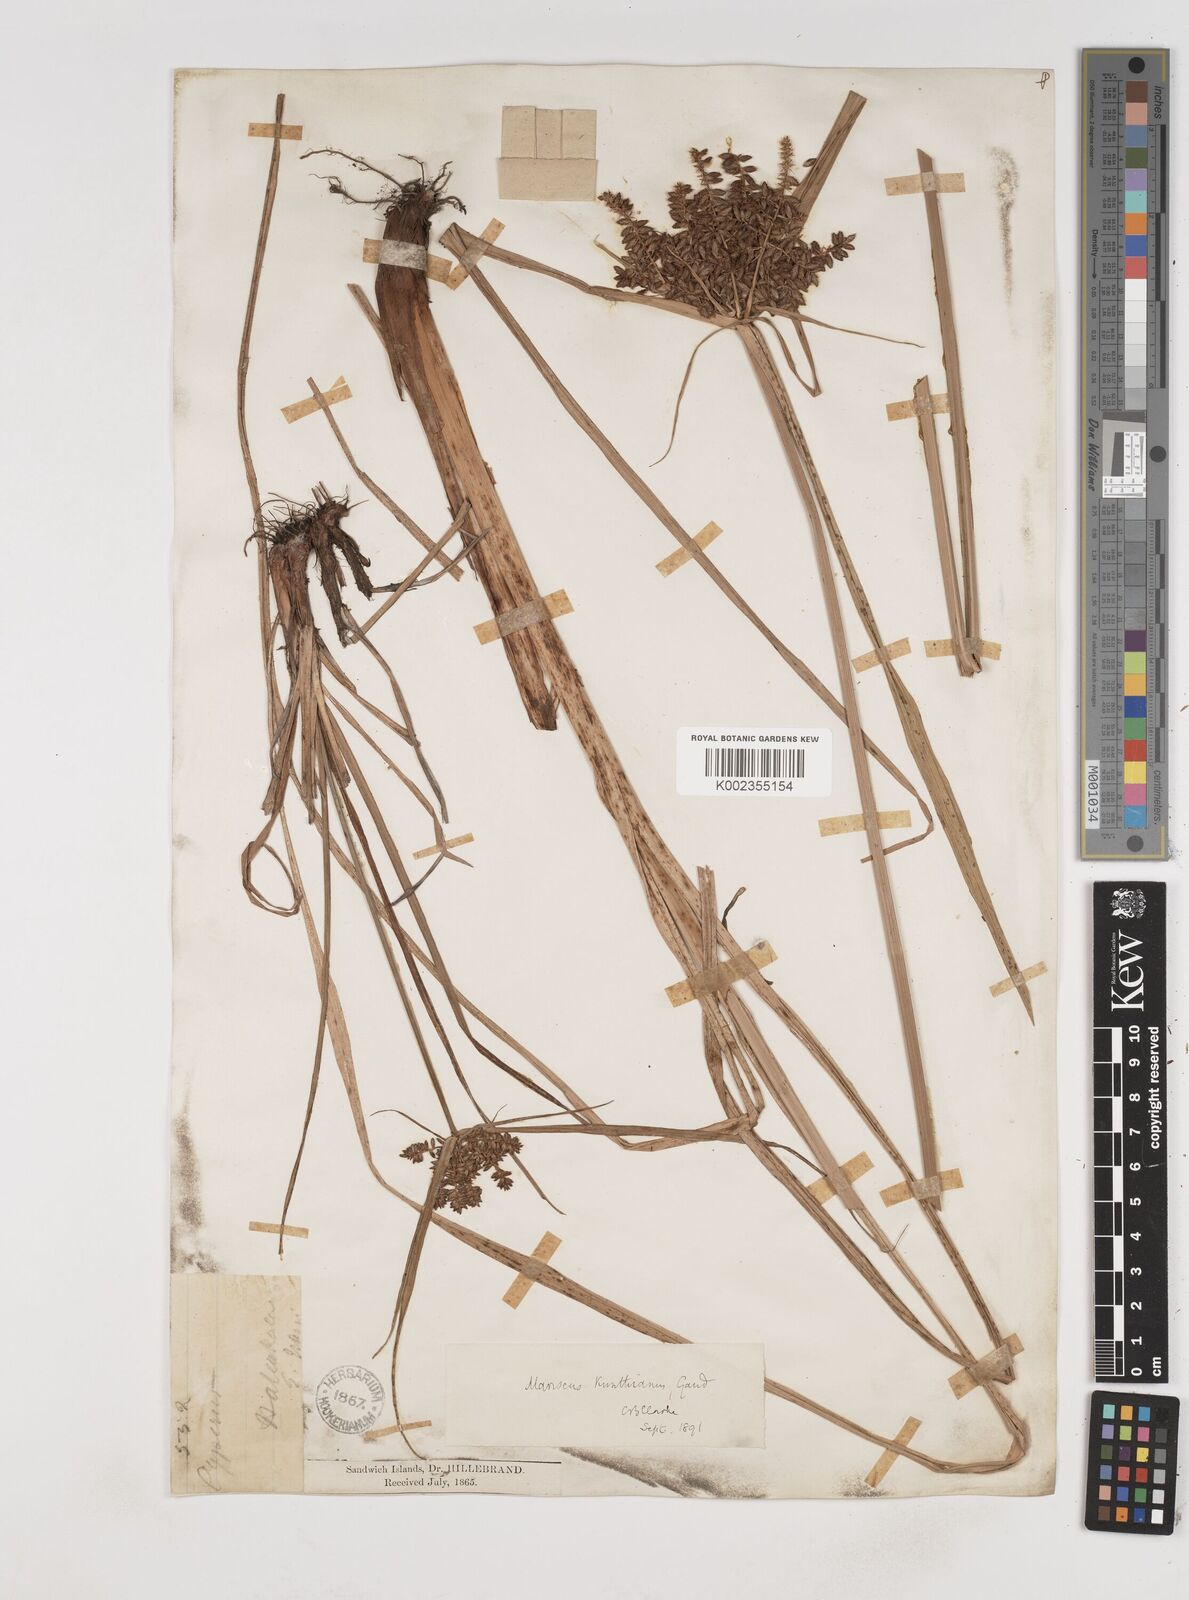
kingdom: Plantae
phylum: Tracheophyta
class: Liliopsida
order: Poales
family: Cyperaceae
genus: Cyperus
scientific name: Cyperus hillebrandii
